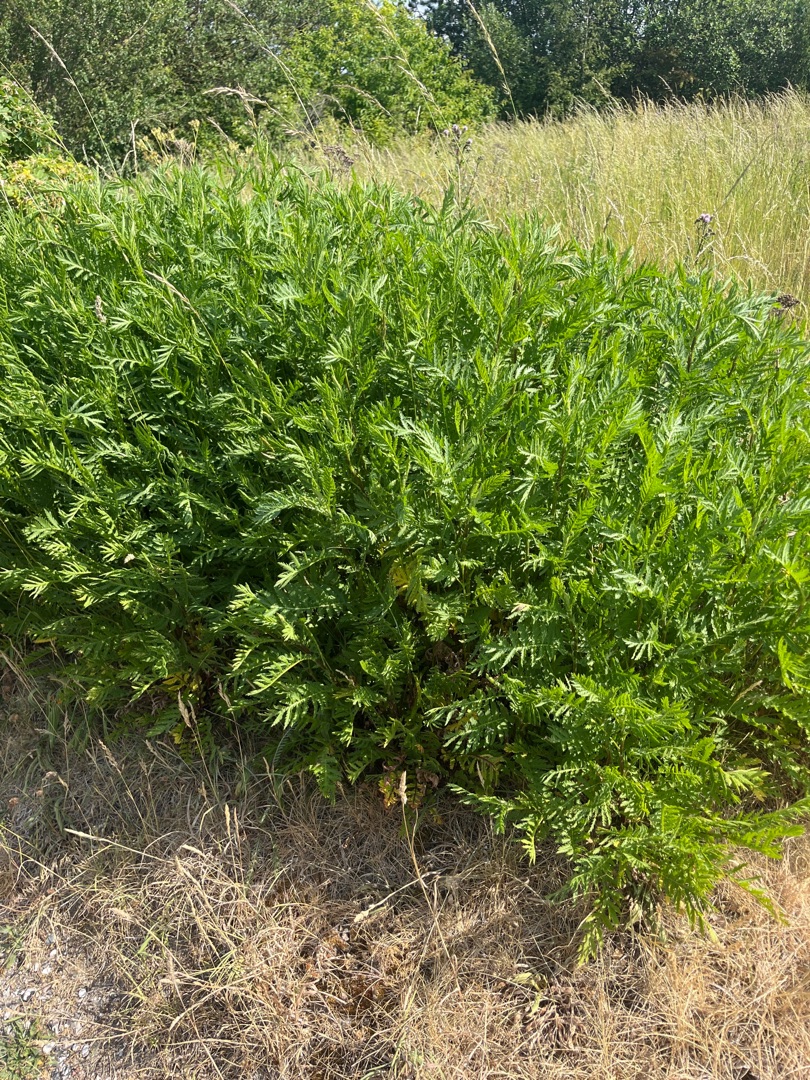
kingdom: Plantae
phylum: Tracheophyta
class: Magnoliopsida
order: Asterales
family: Asteraceae
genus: Tanacetum
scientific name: Tanacetum vulgare
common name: Rejnfan
